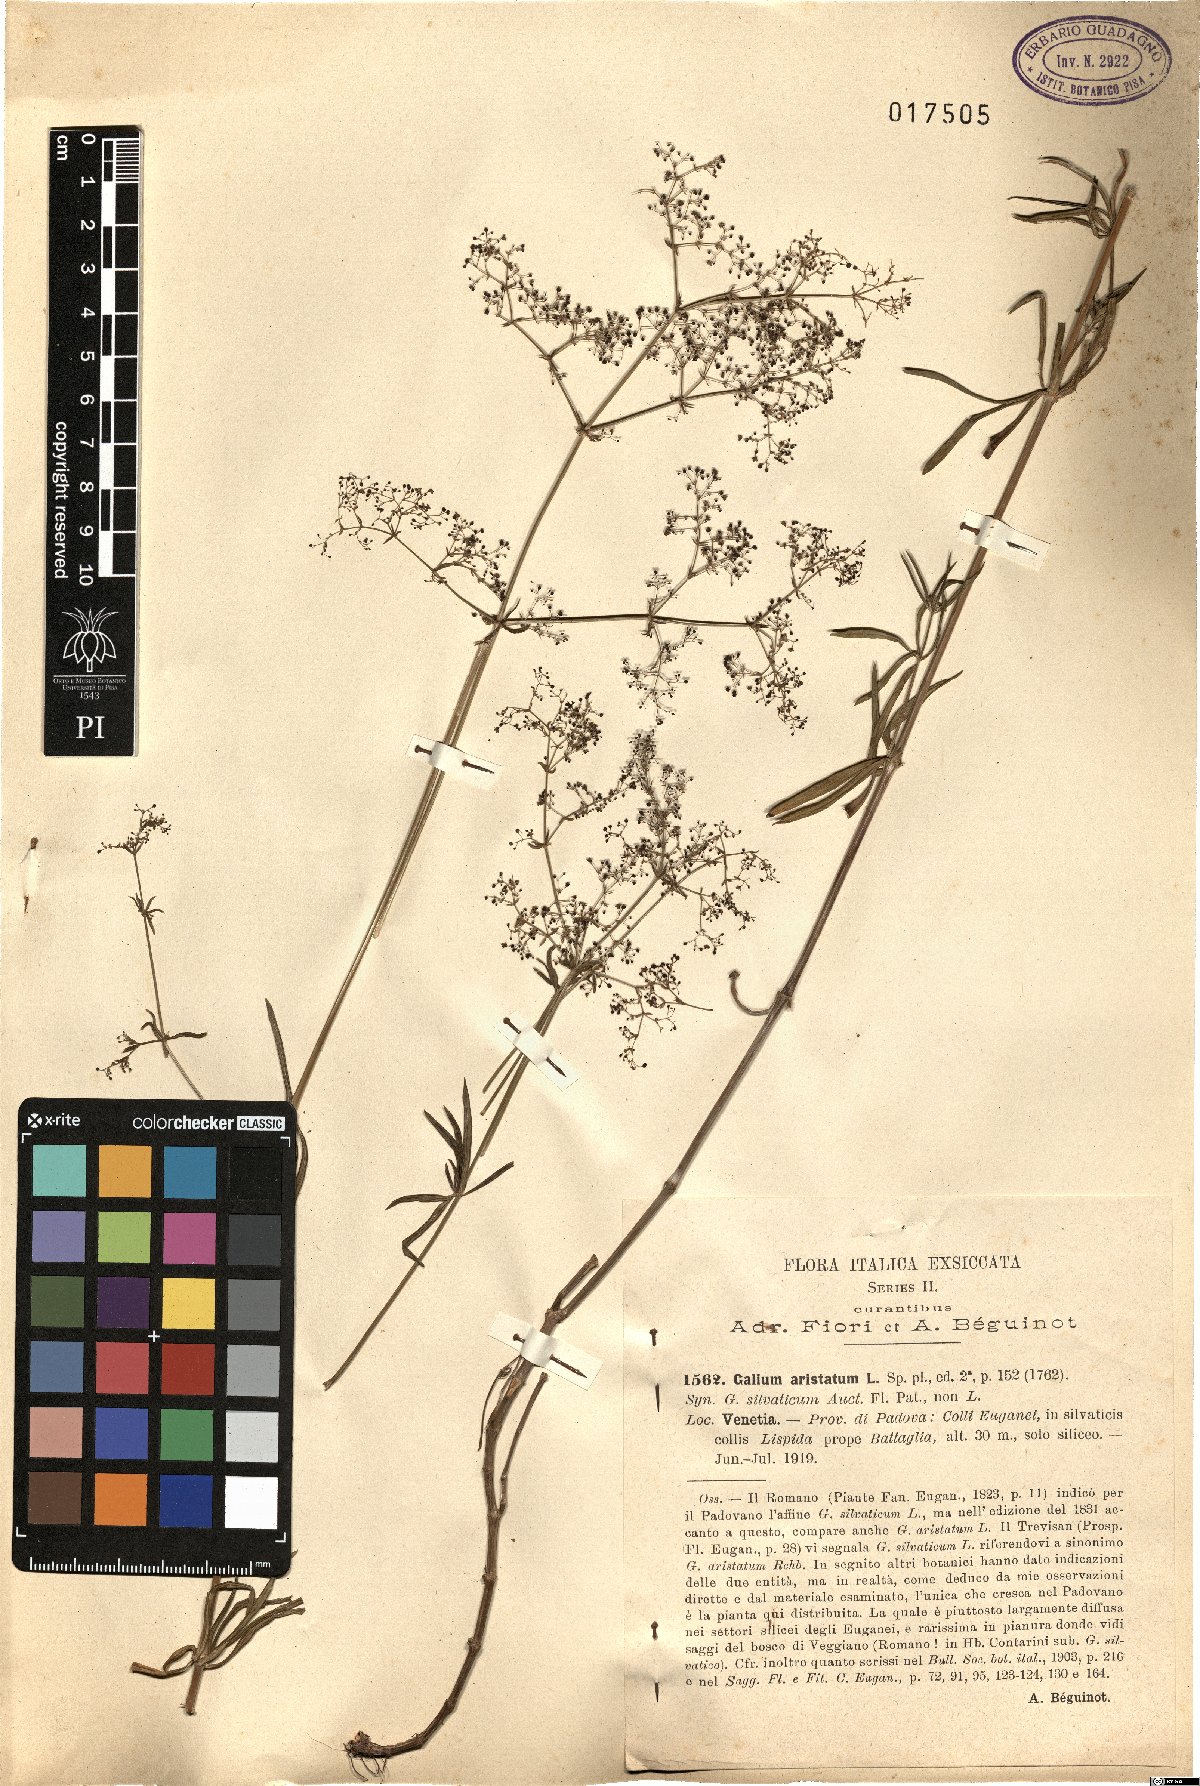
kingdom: Plantae
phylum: Tracheophyta
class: Magnoliopsida
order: Gentianales
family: Rubiaceae
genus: Galium
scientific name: Galium aristatum
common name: Awned bedstraw
